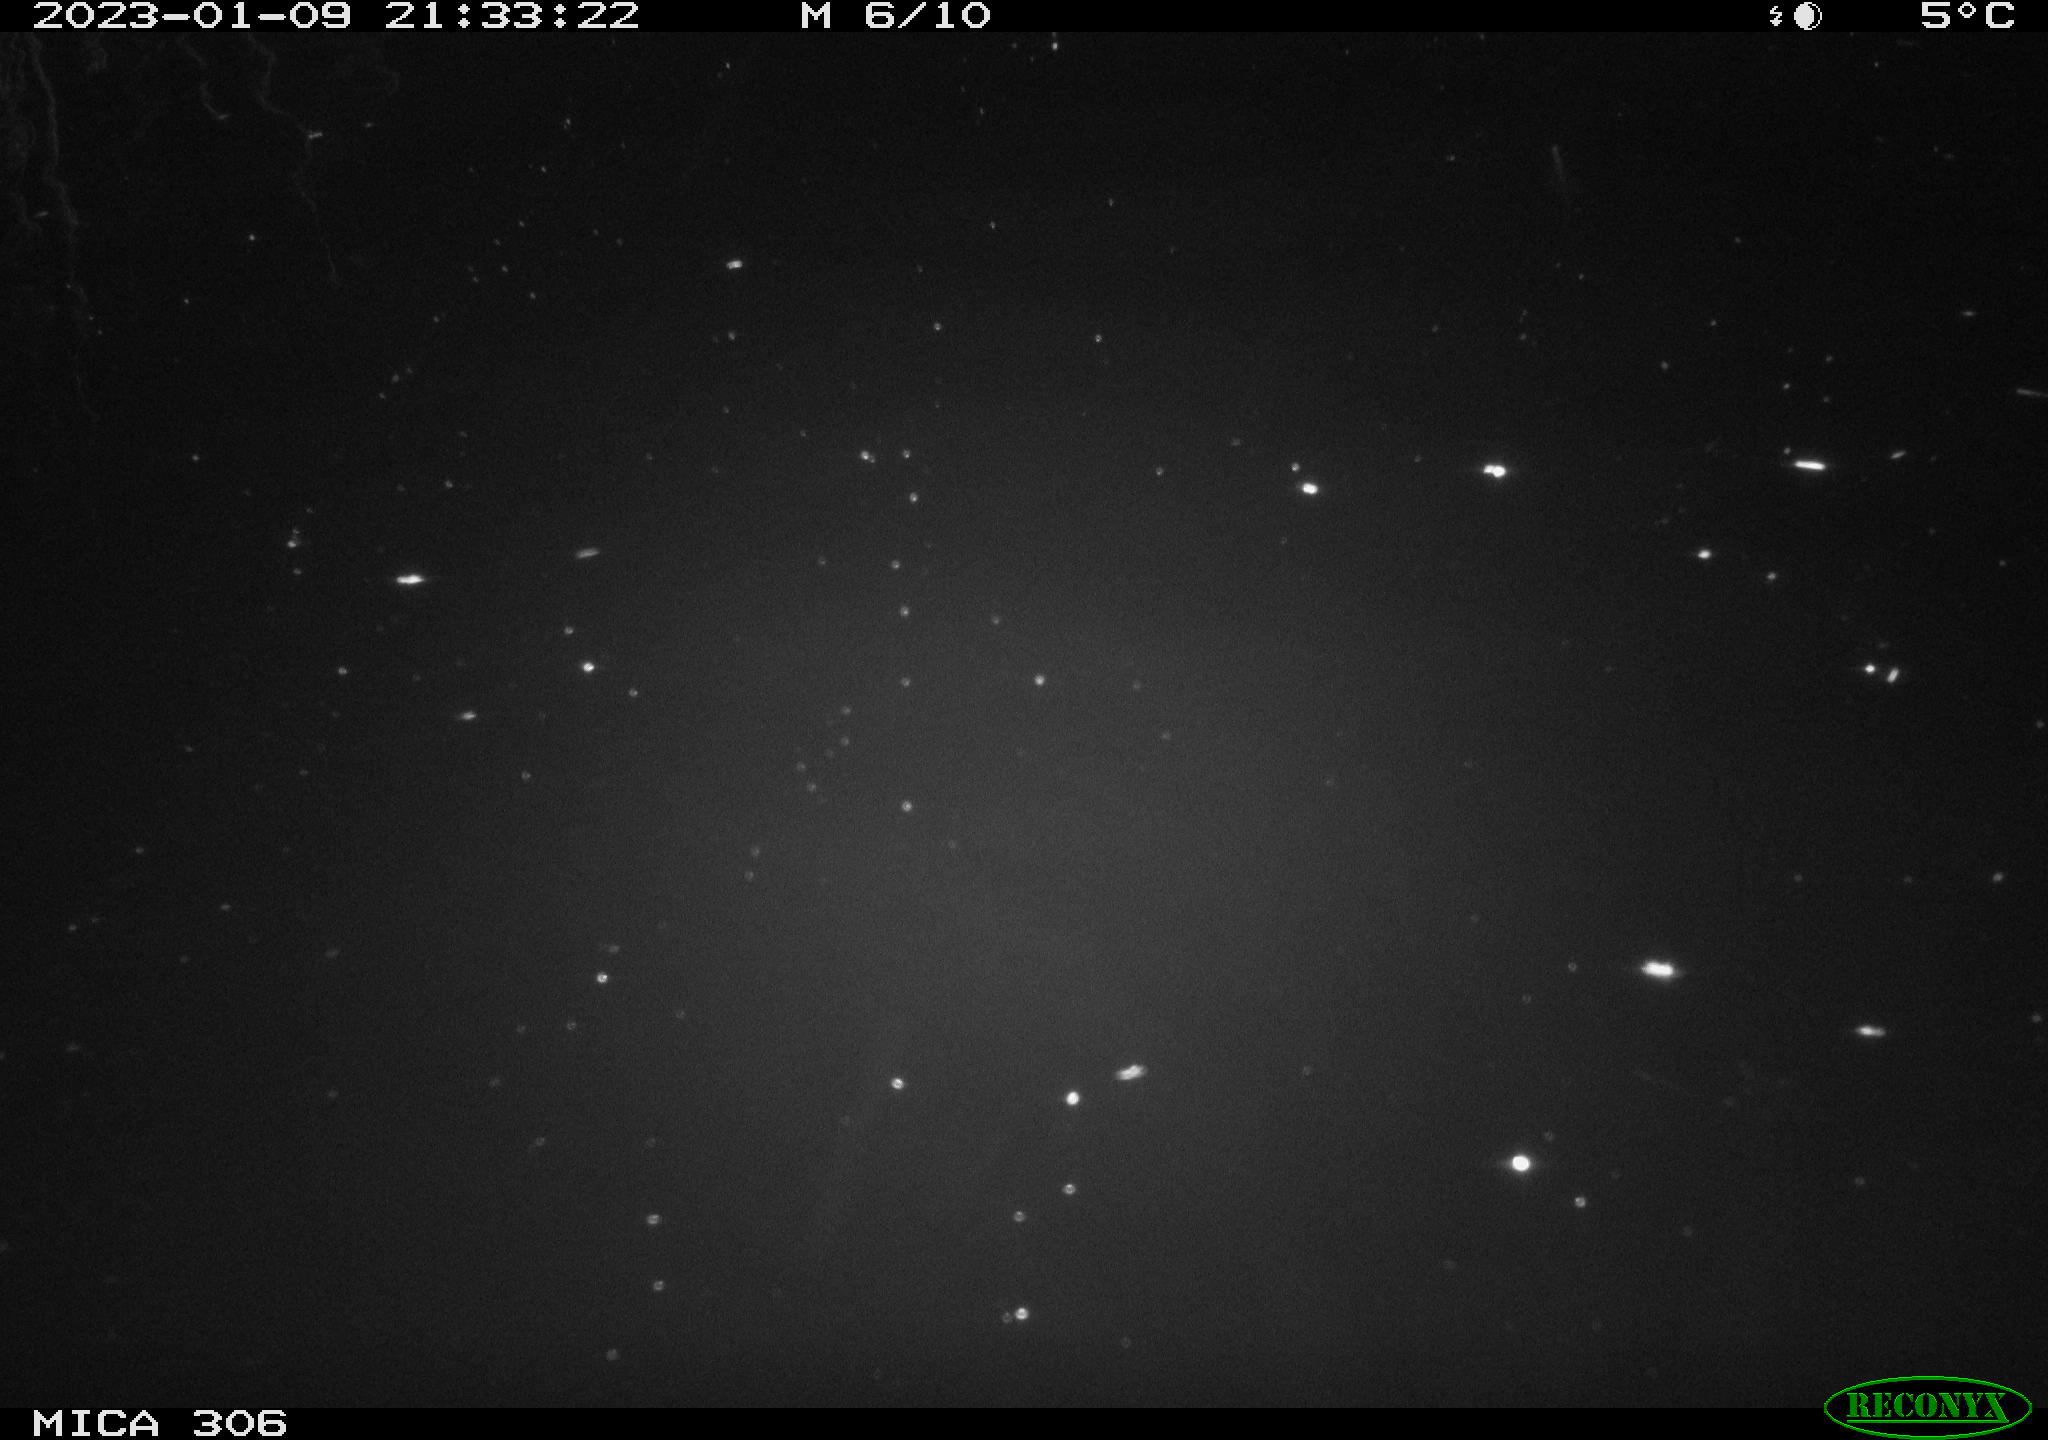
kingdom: Animalia
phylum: Chordata
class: Mammalia
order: Rodentia
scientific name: Rodentia
